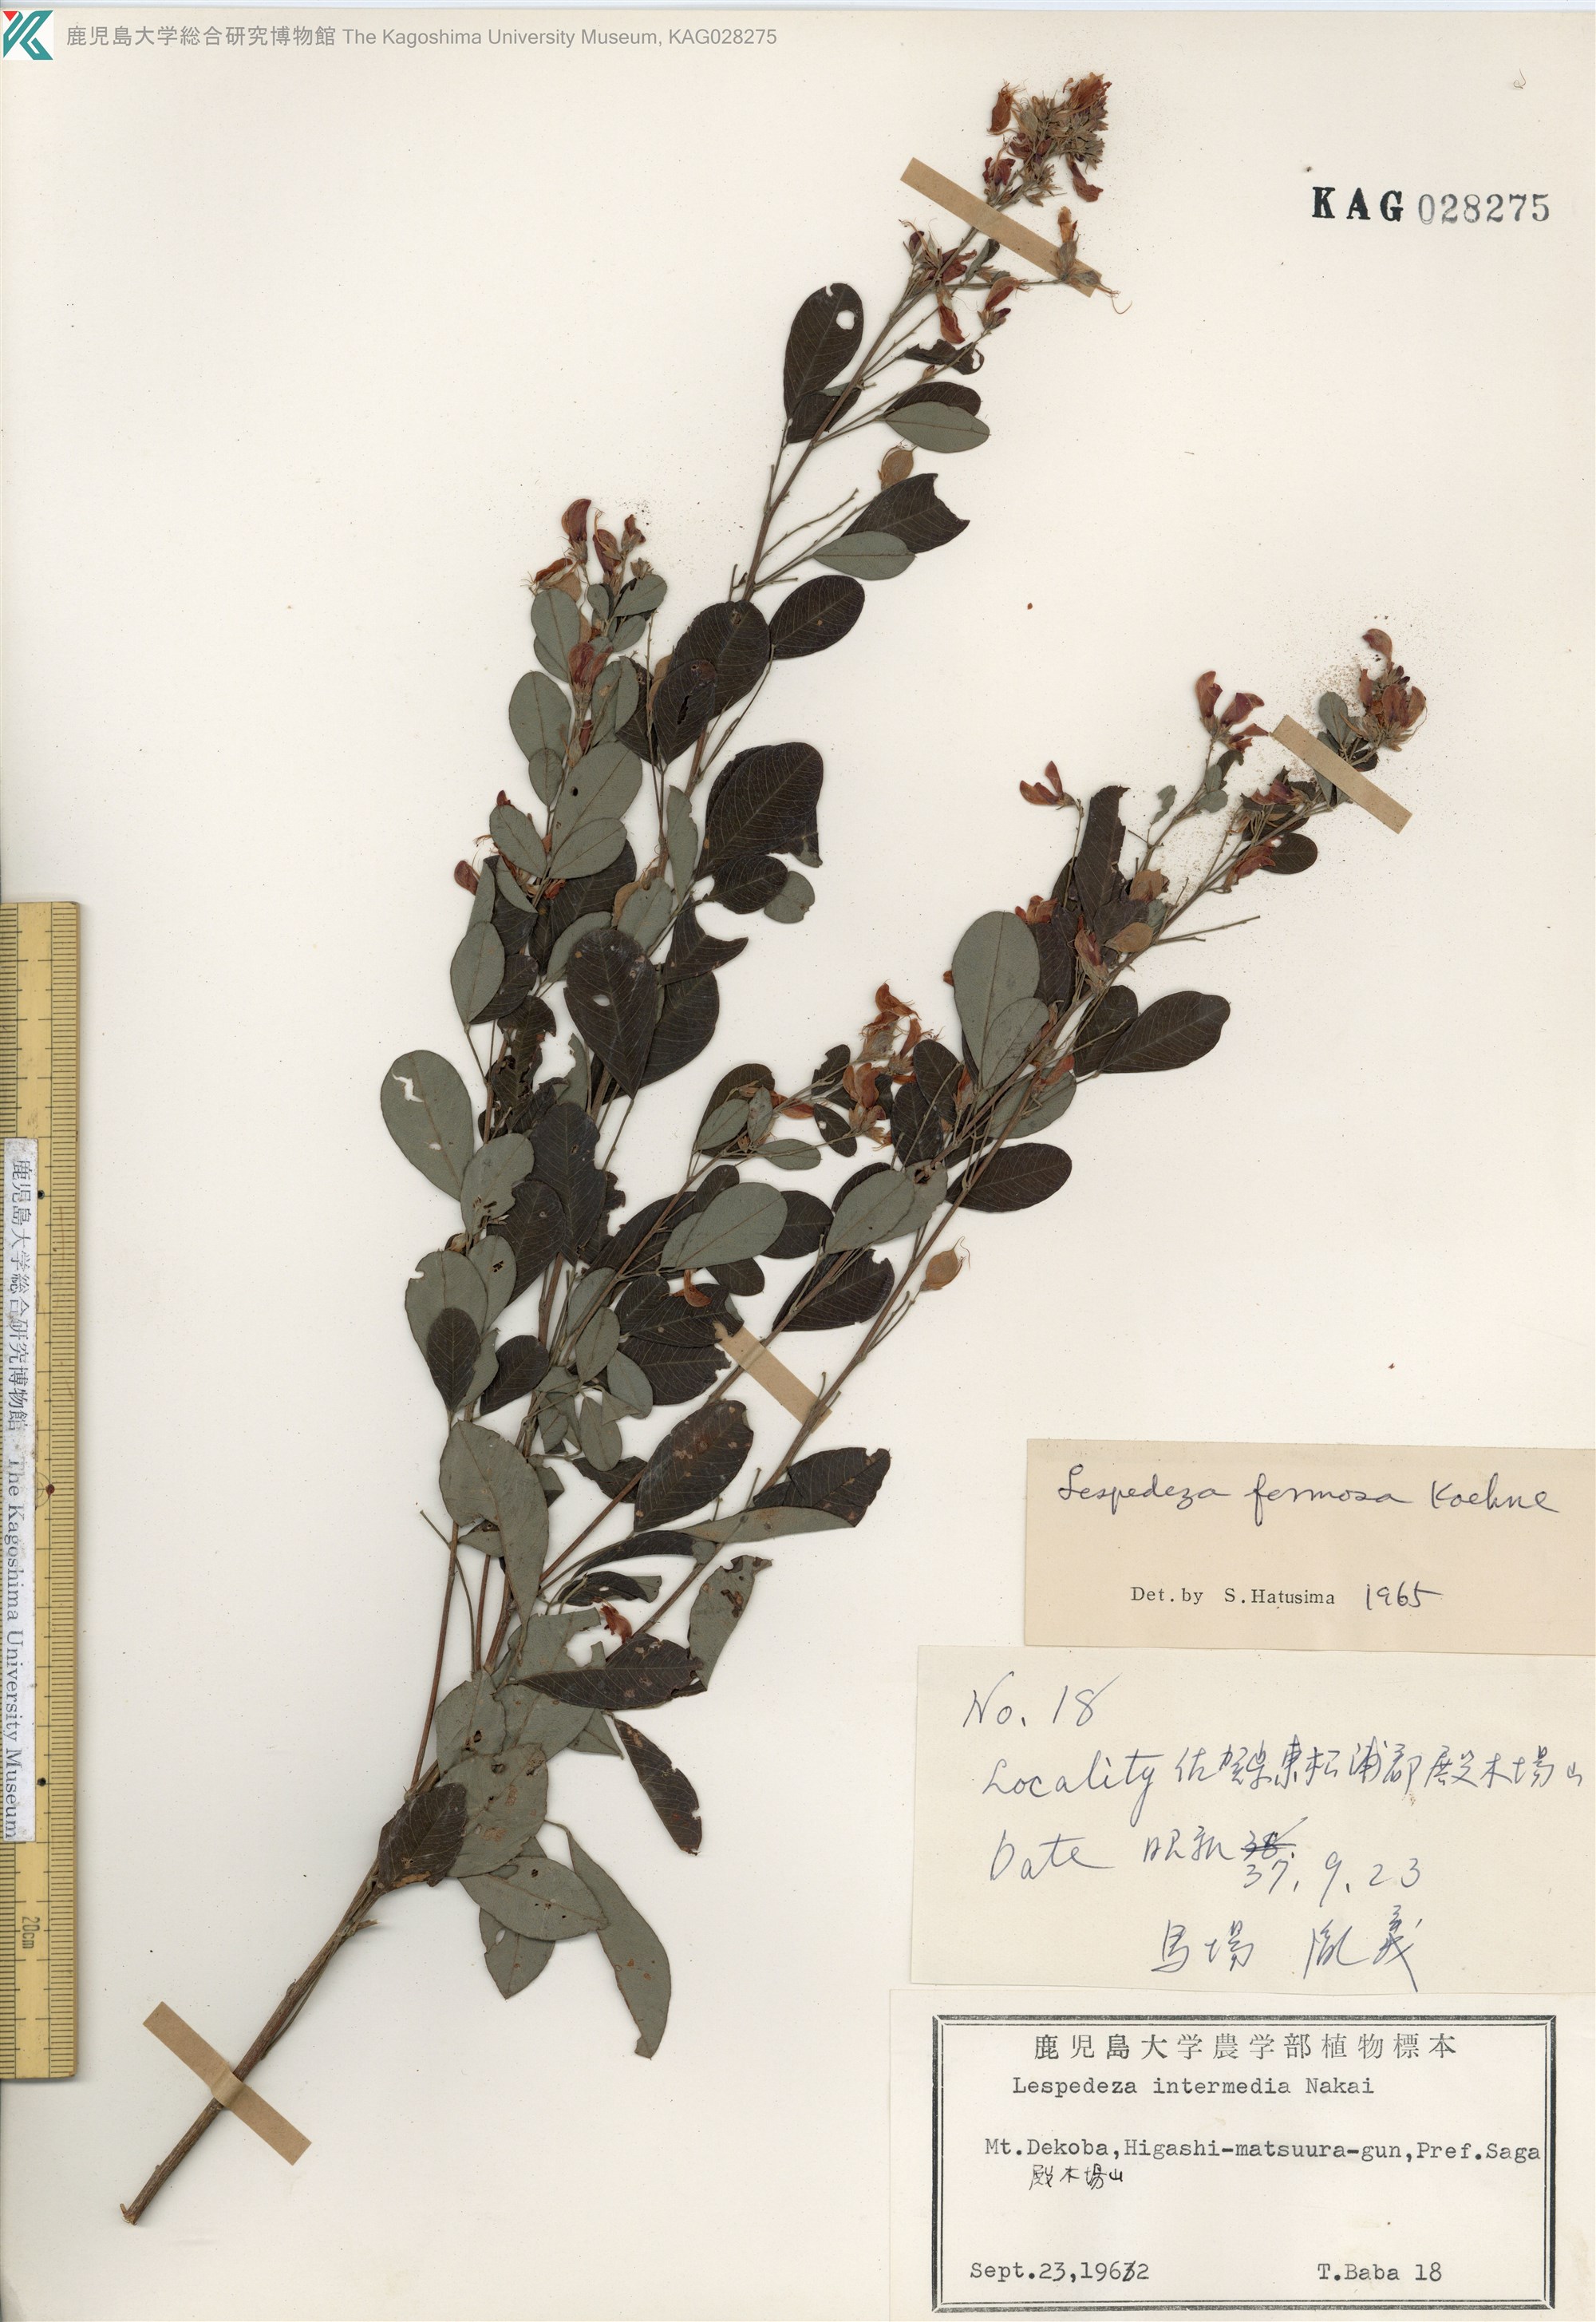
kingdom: Plantae
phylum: Tracheophyta
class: Magnoliopsida
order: Fabales
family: Fabaceae
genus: Lespedeza
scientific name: Lespedeza thunbergii
